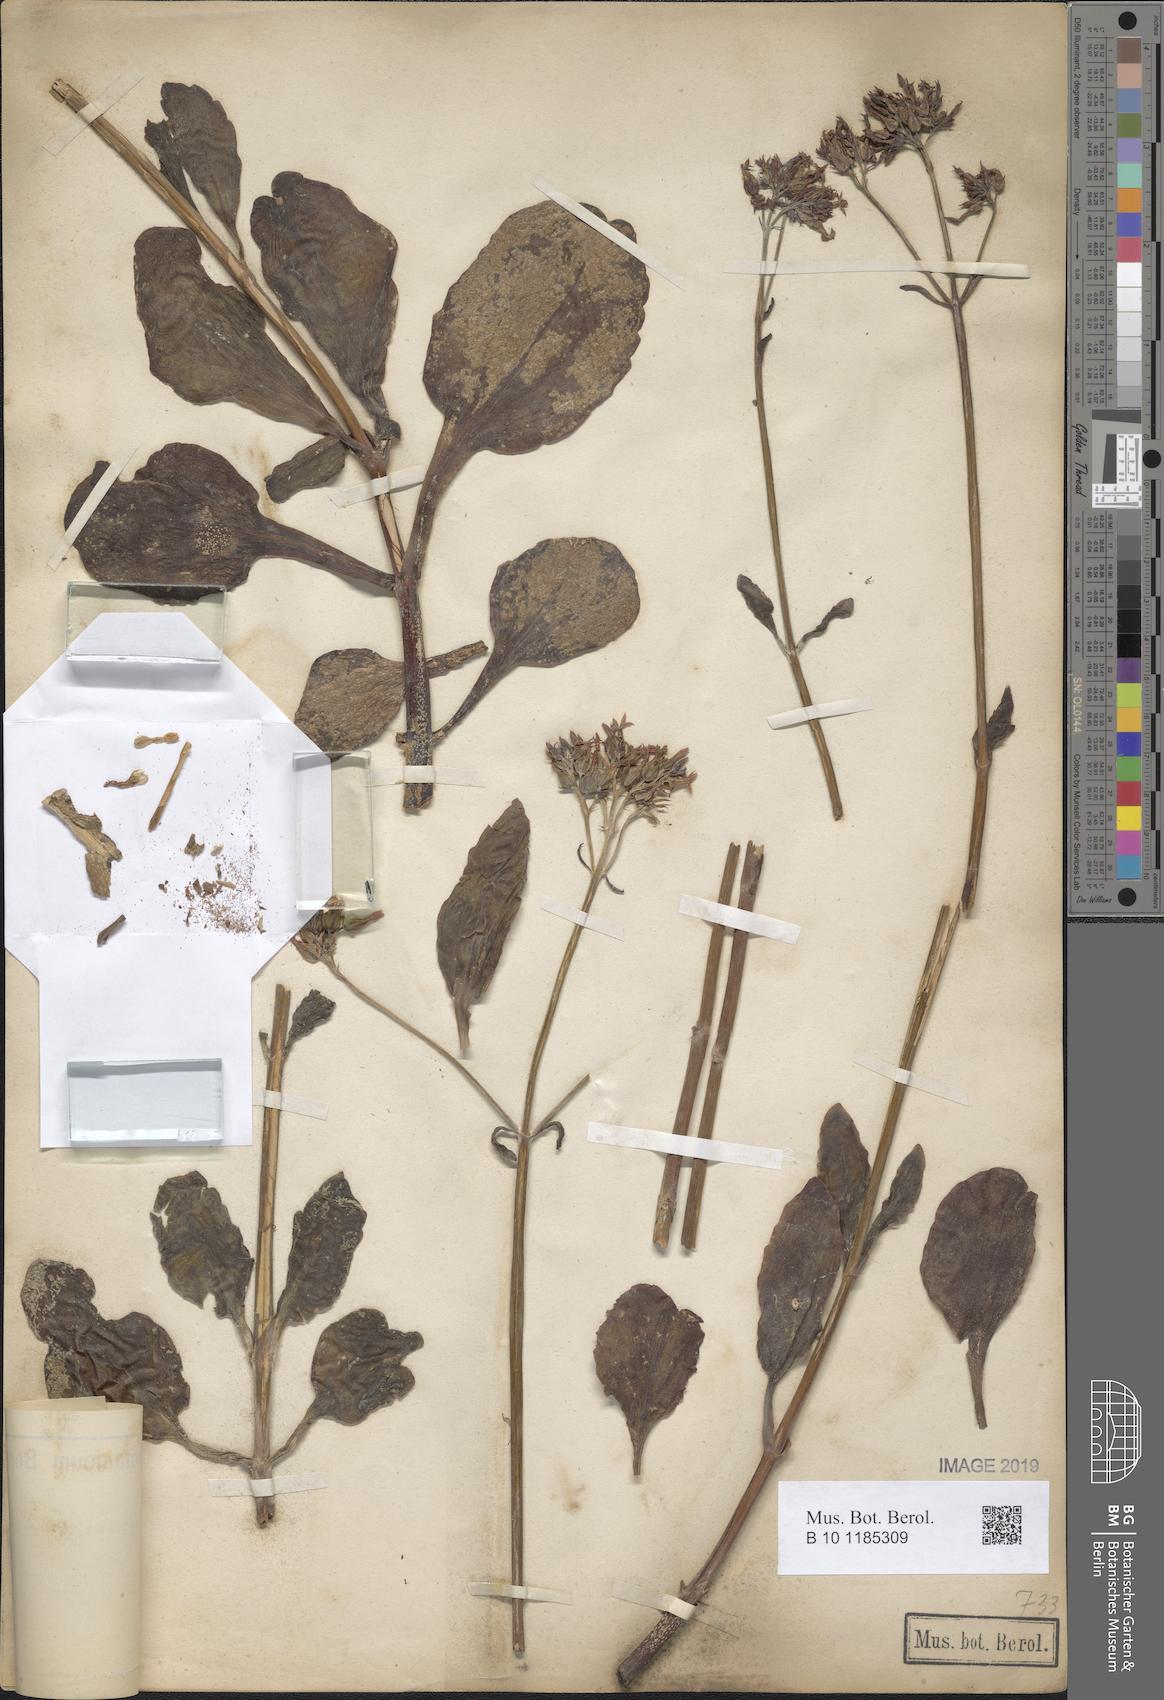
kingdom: Plantae
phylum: Tracheophyta
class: Magnoliopsida
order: Saxifragales
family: Crassulaceae
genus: Kalanchoe
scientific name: Kalanchoe deficiens
